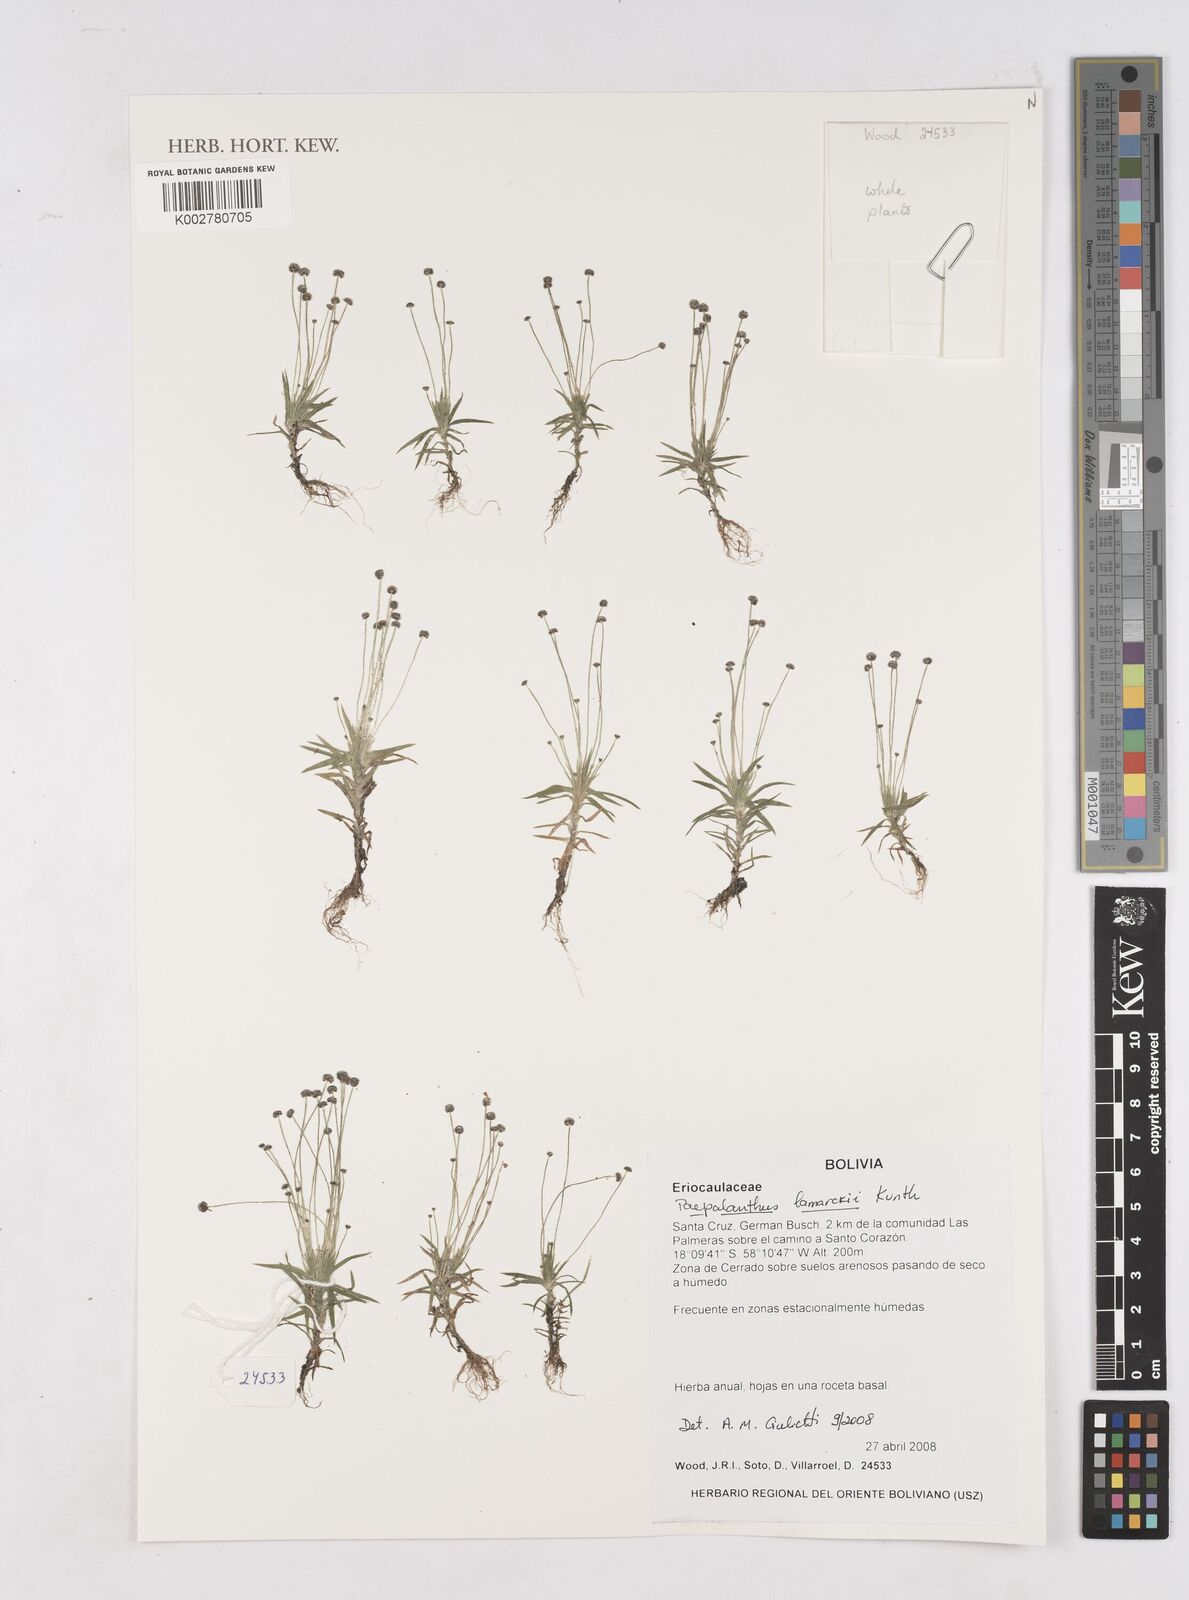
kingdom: Plantae
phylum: Tracheophyta
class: Liliopsida
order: Poales
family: Eriocaulaceae
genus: Paepalanthus
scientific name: Paepalanthus lamarckii
